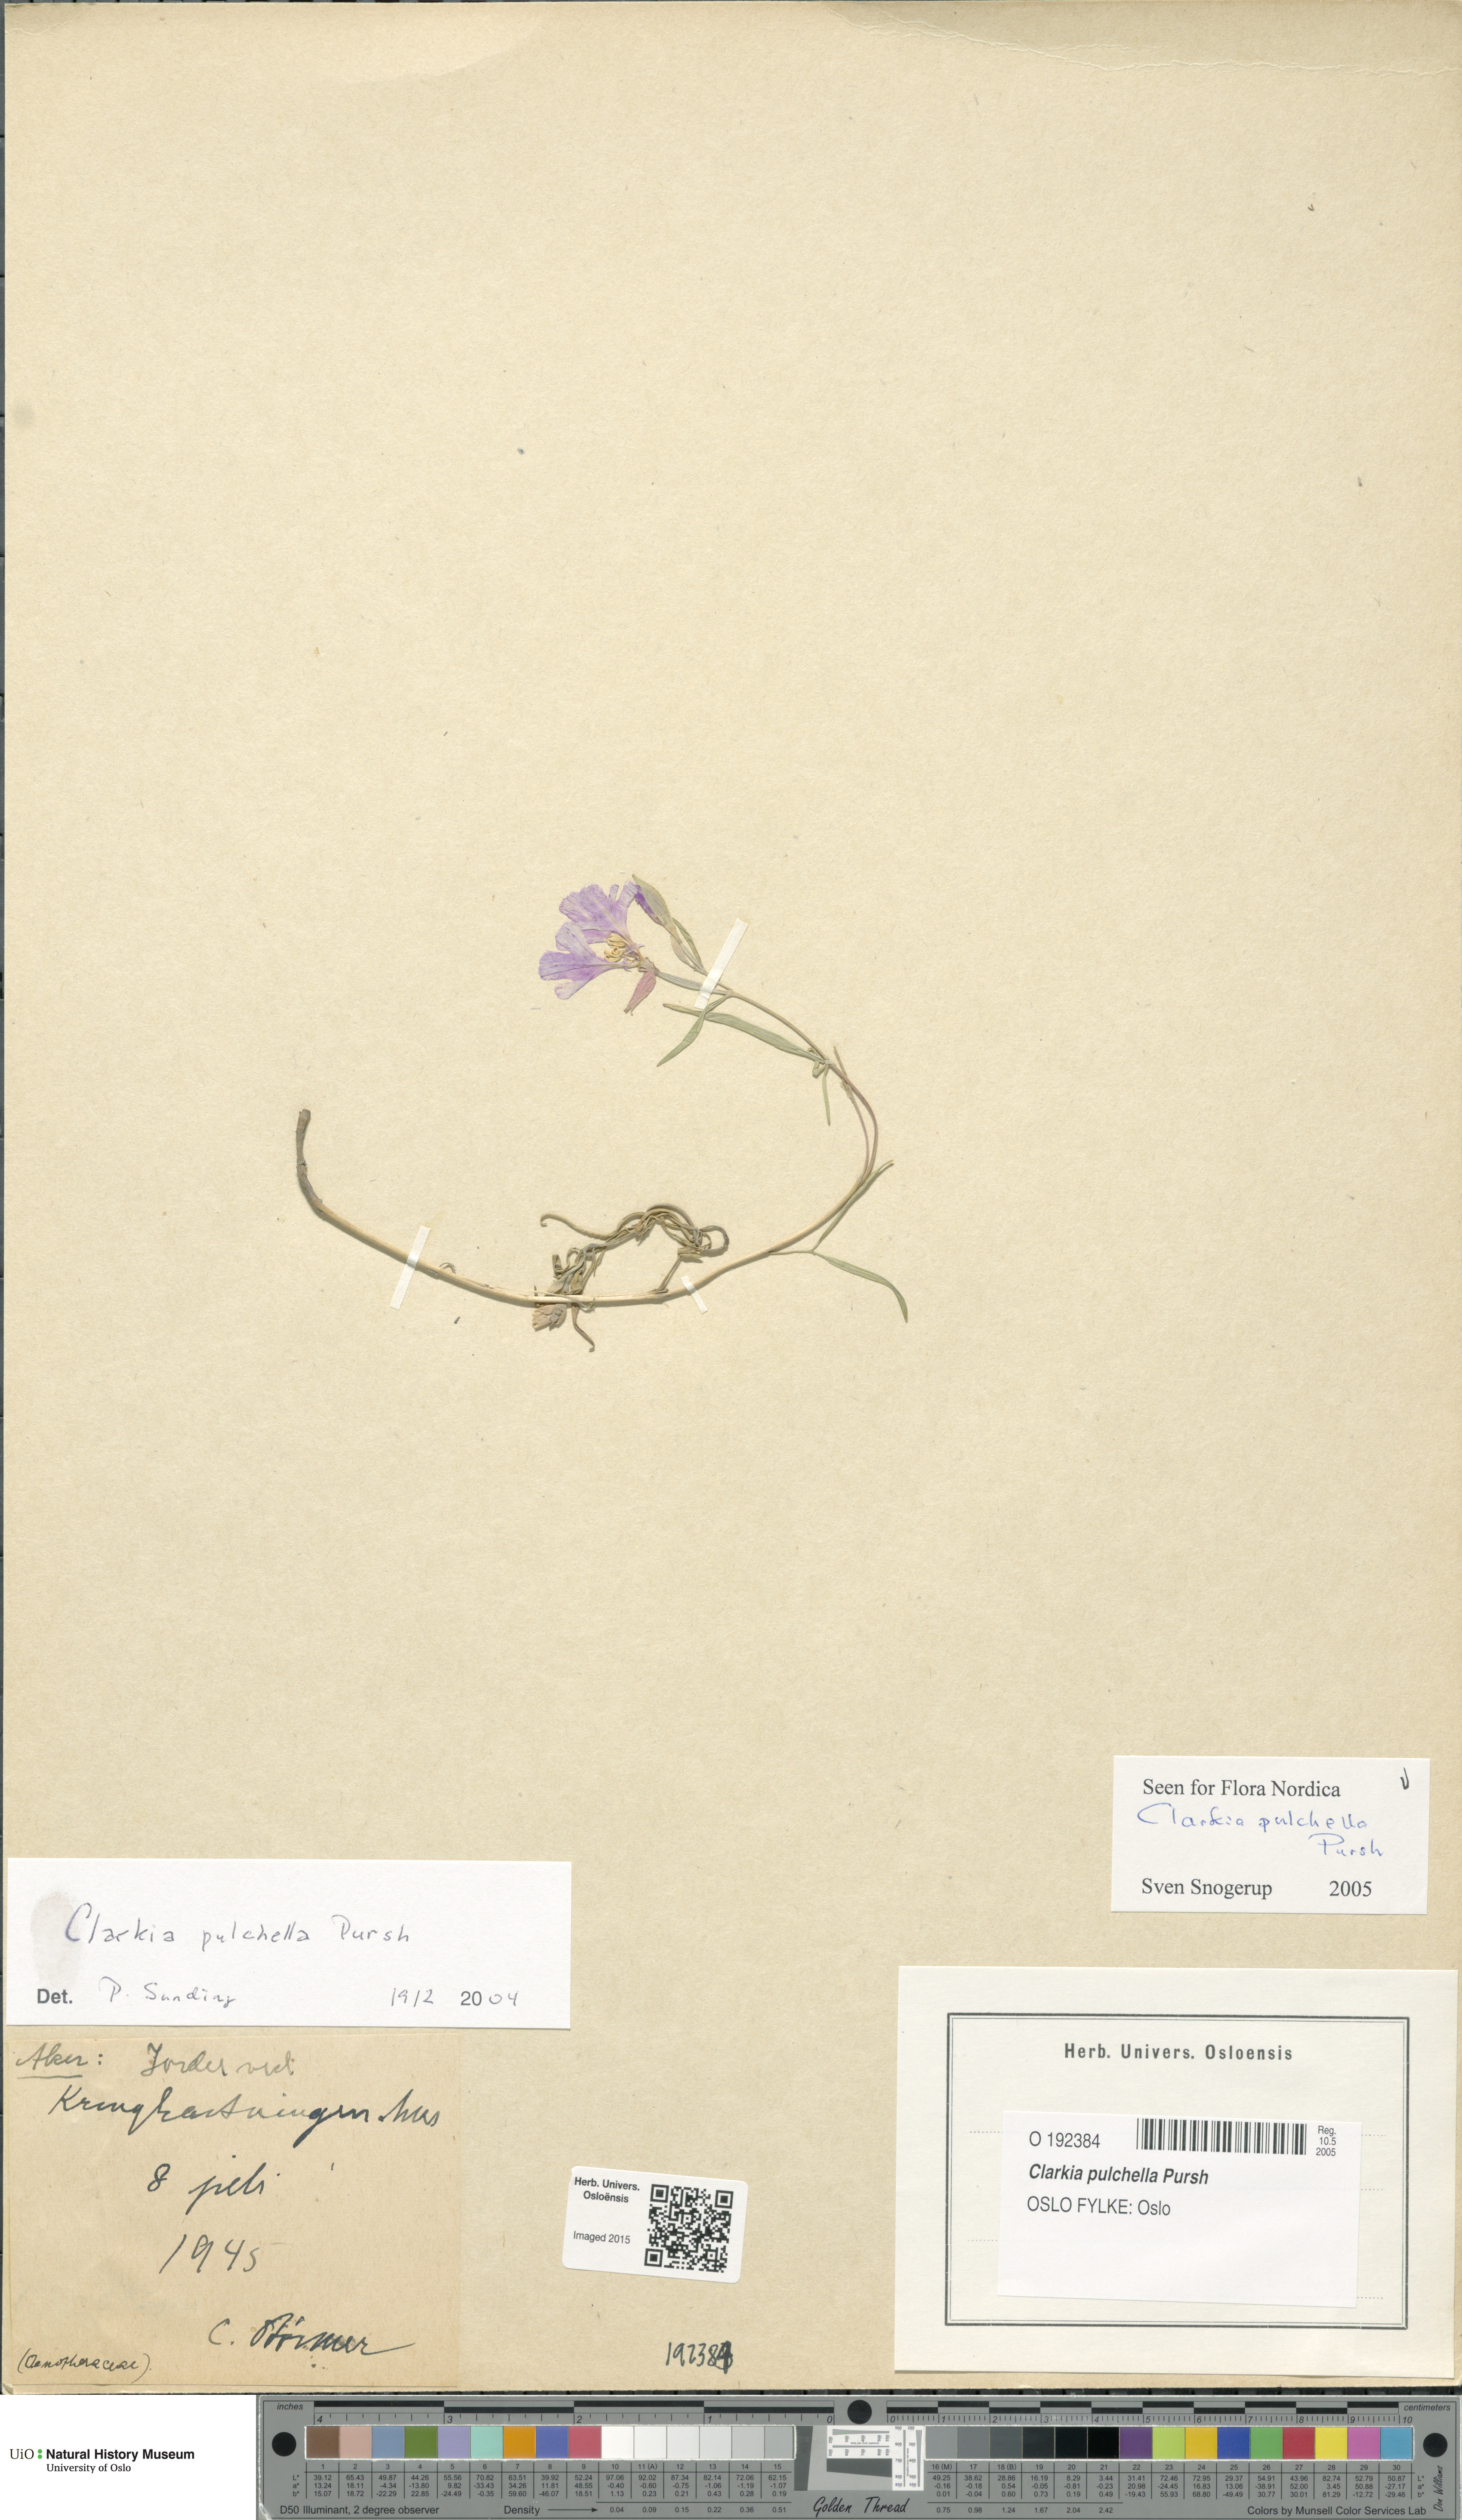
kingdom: Plantae
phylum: Tracheophyta
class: Magnoliopsida
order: Myrtales
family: Onagraceae
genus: Clarkia
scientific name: Clarkia pulchella
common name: Deer horn
